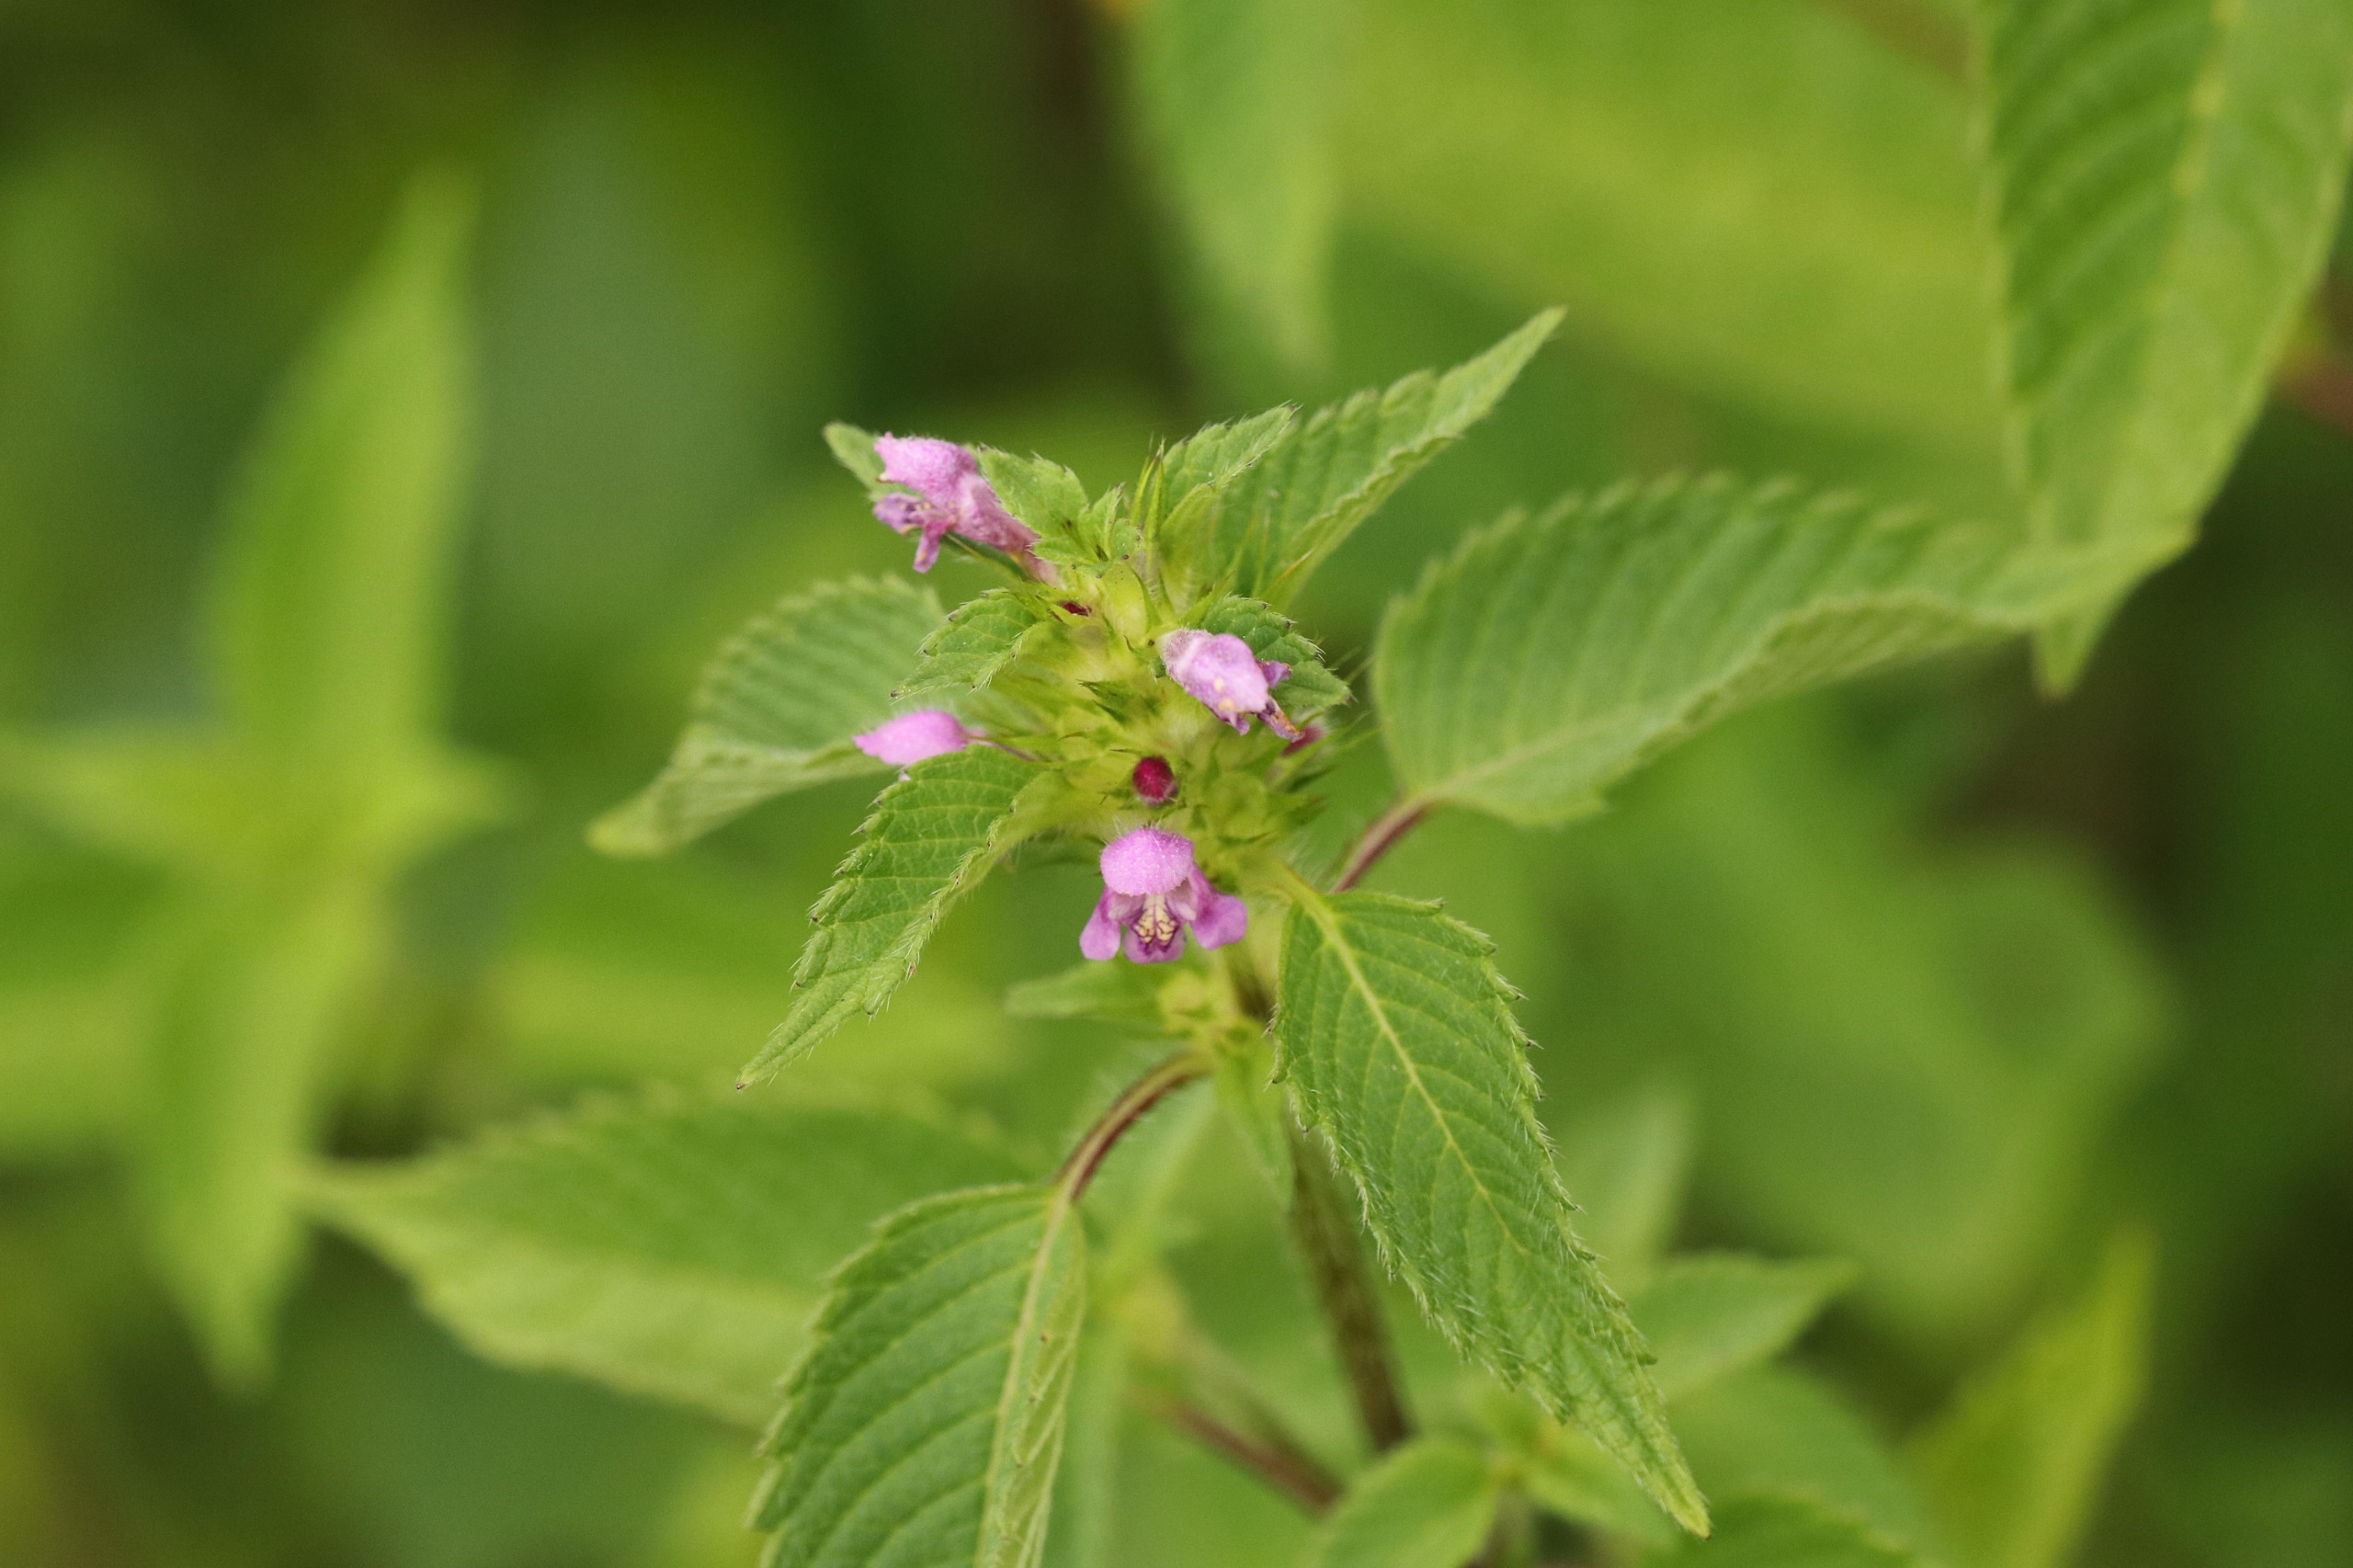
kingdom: Plantae
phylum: Tracheophyta
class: Magnoliopsida
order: Lamiales
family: Lamiaceae
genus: Galeopsis
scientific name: Galeopsis tetrahit
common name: Almindelig hanekro
